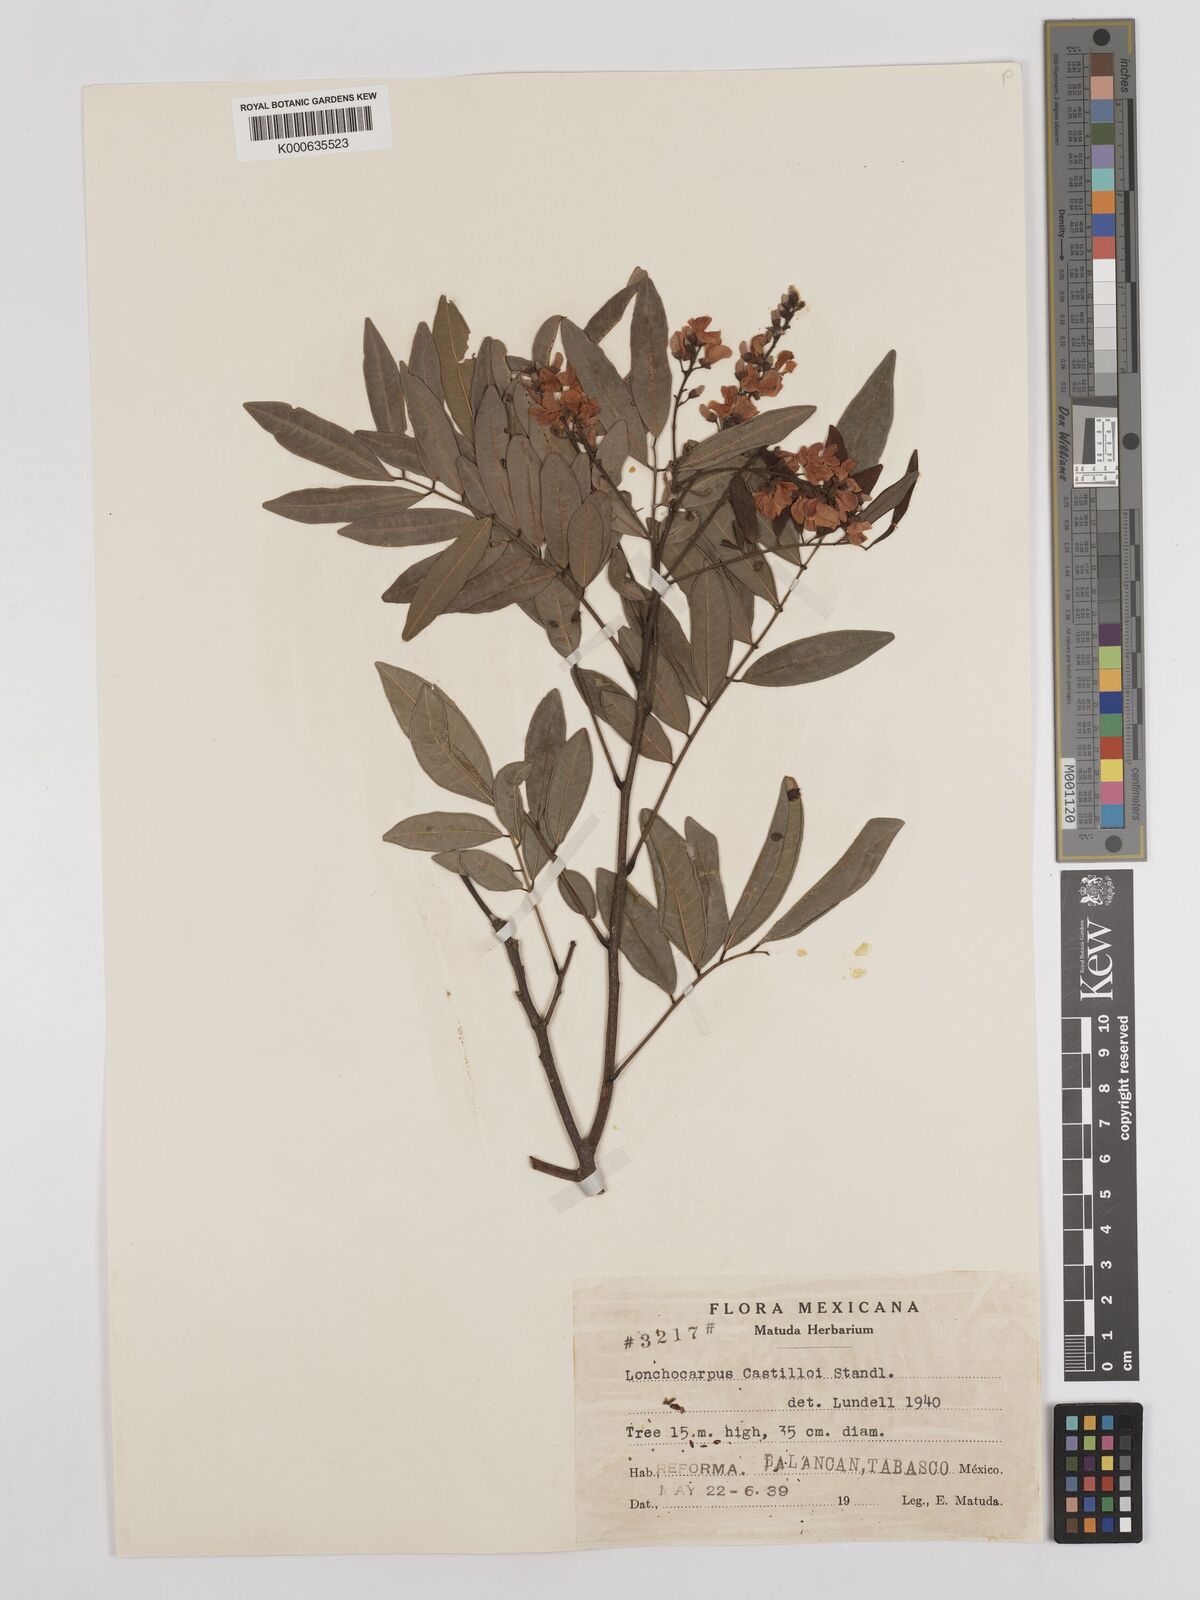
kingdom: Plantae
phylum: Tracheophyta
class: Magnoliopsida
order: Fabales
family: Fabaceae
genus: Lonchocarpus
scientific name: Lonchocarpus castilloi
